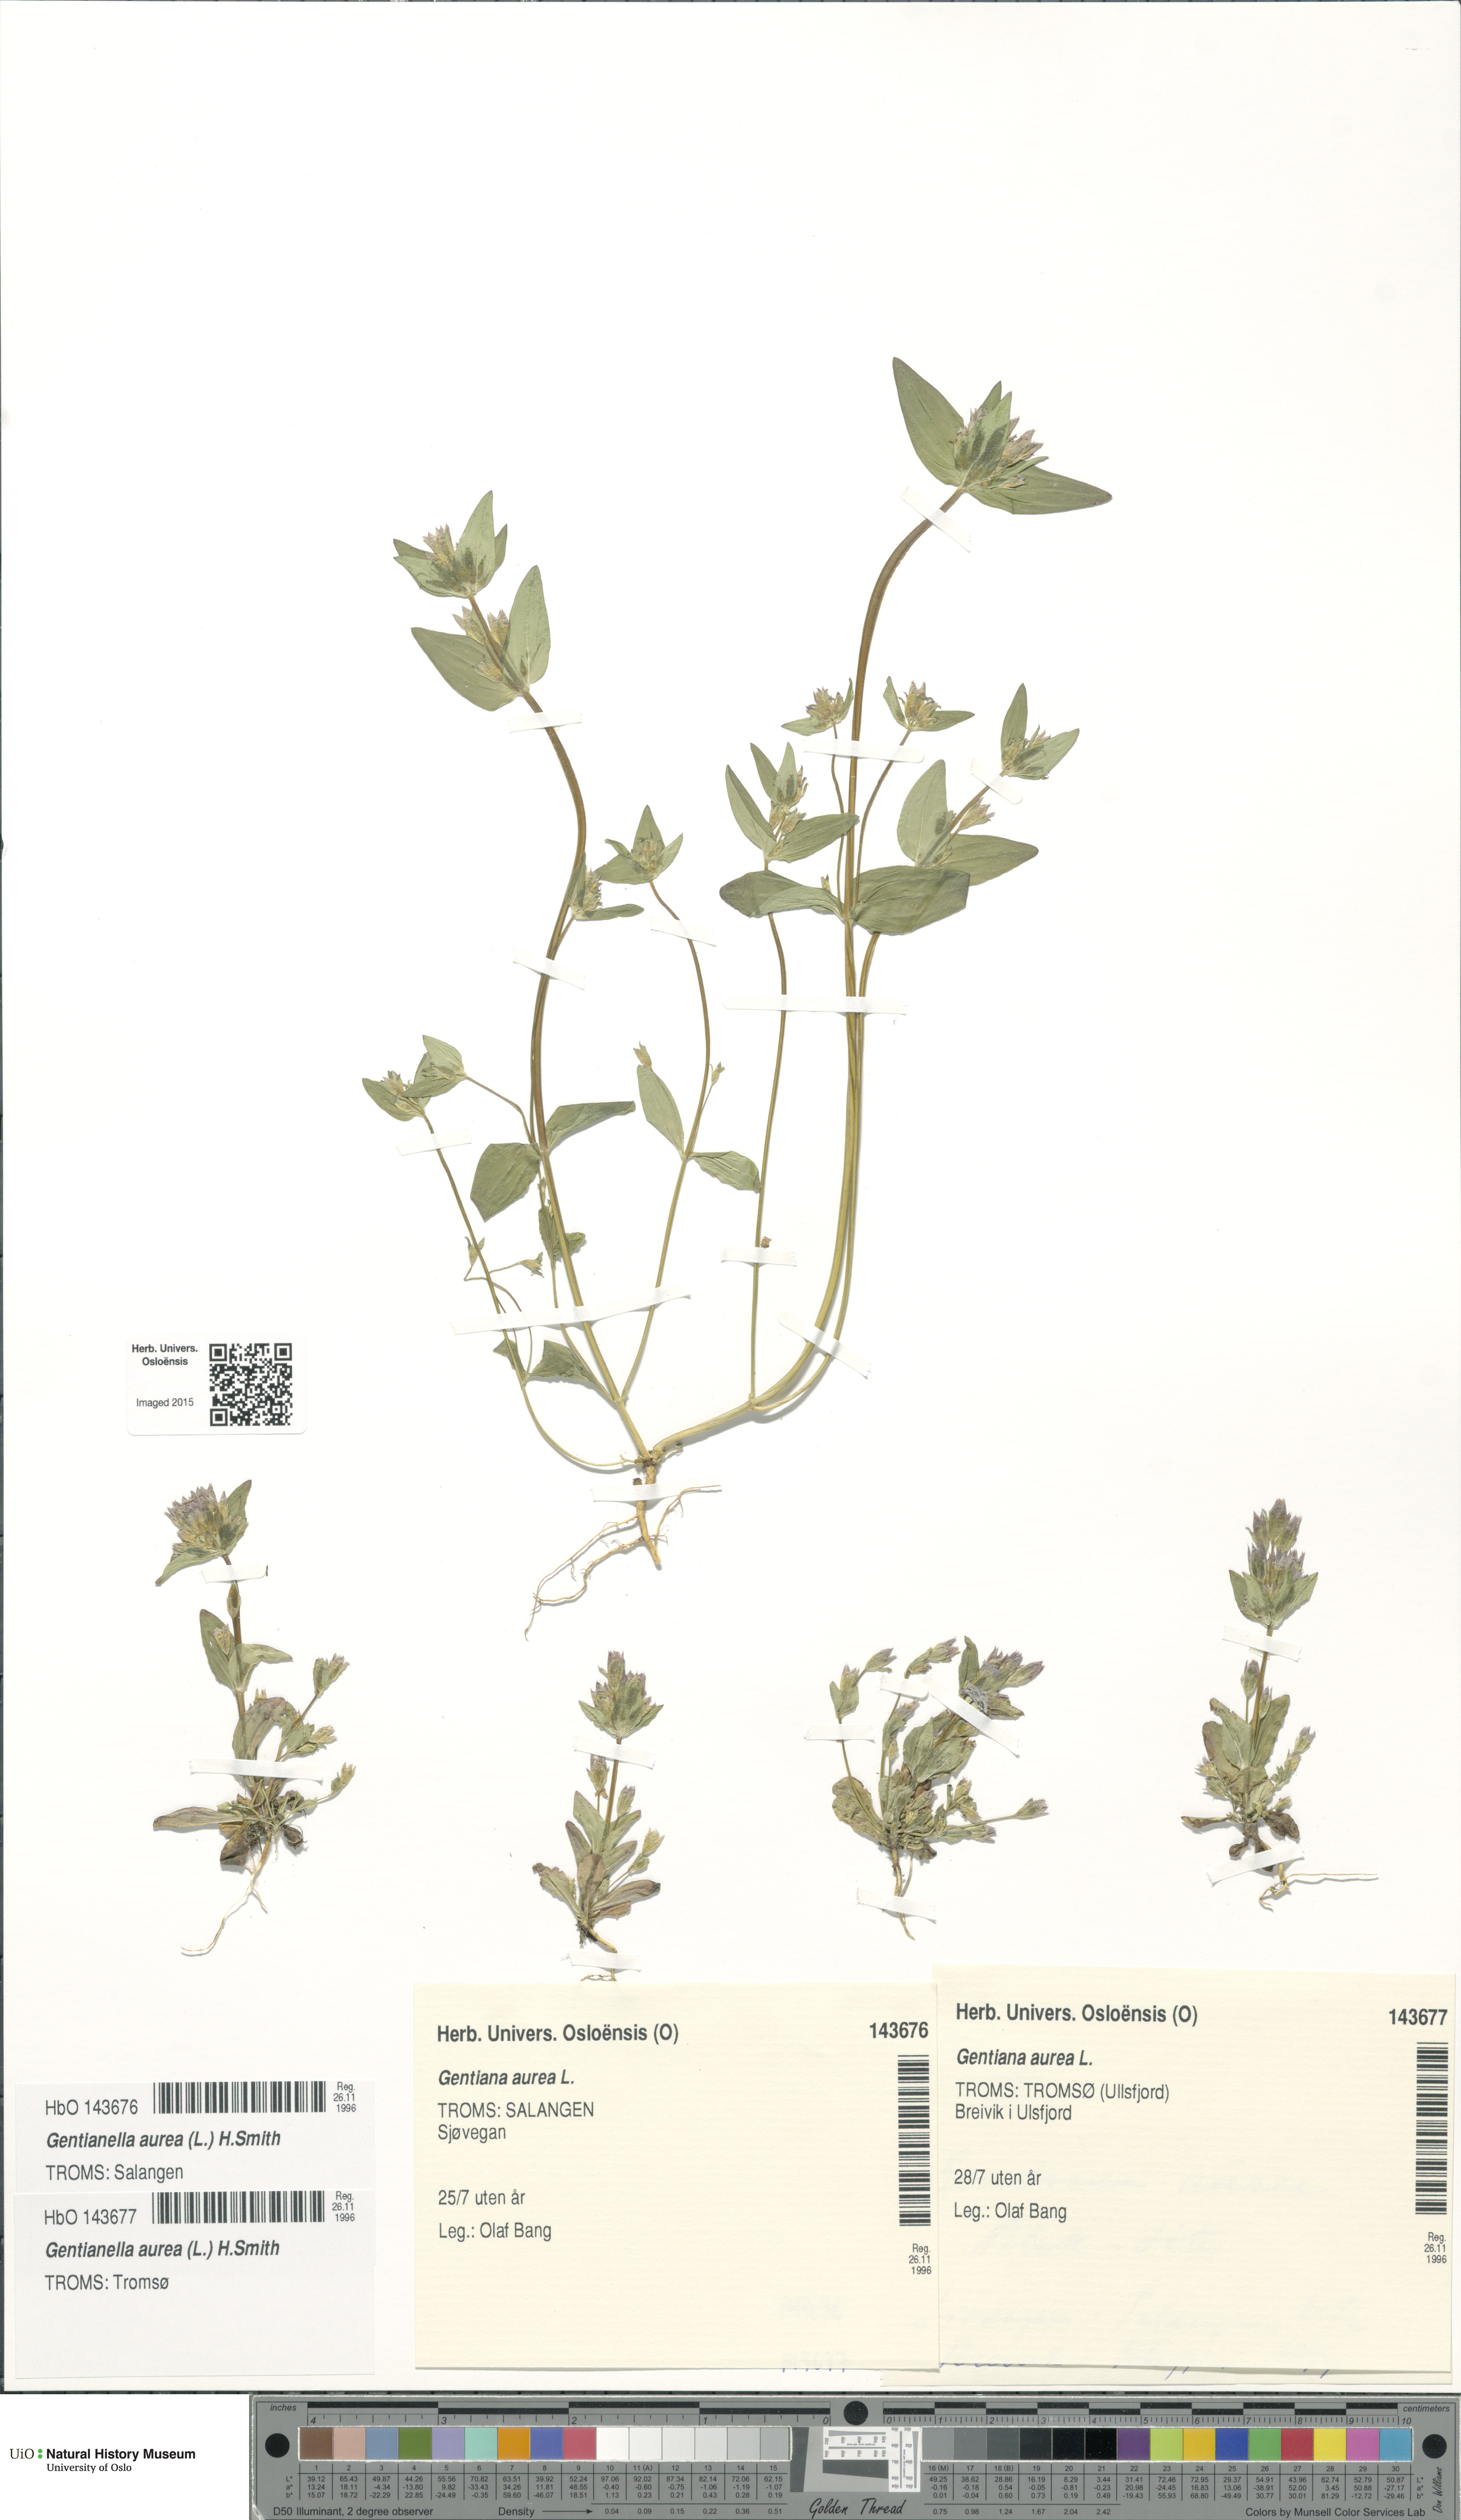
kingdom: Plantae
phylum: Tracheophyta
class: Magnoliopsida
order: Gentianales
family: Gentianaceae
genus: Gentianella
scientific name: Gentianella aurea
